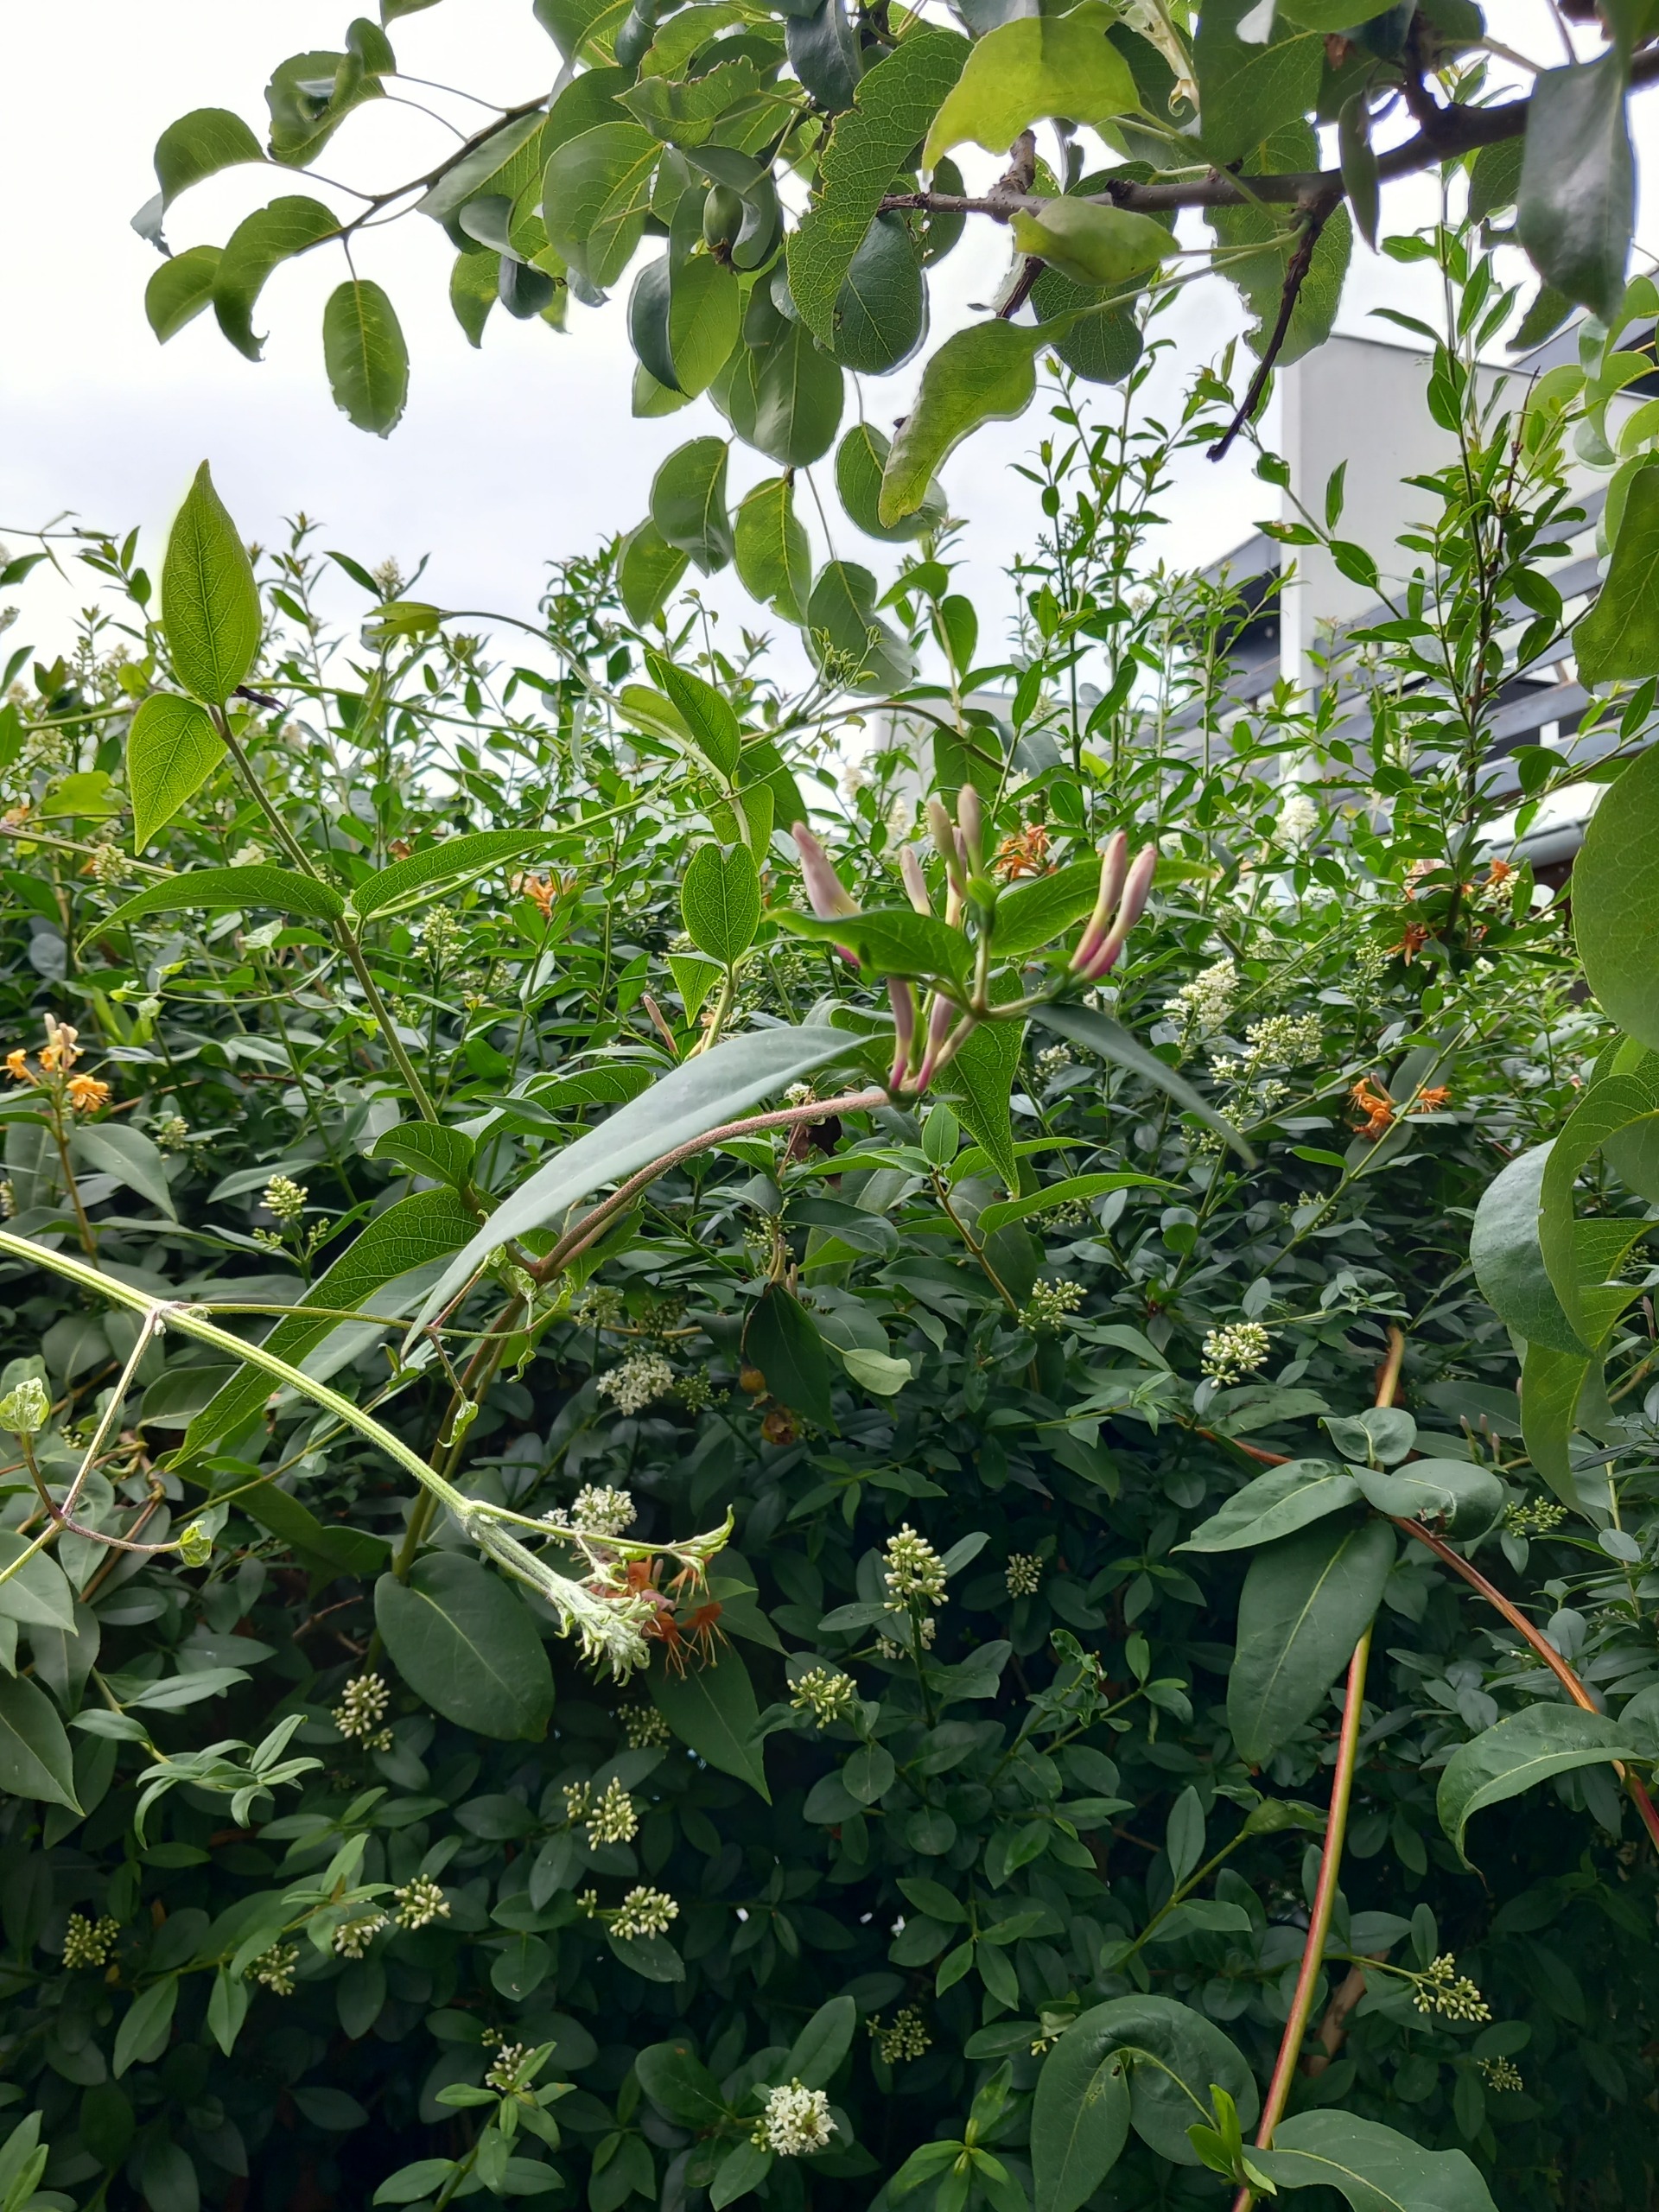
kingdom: Plantae
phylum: Tracheophyta
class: Magnoliopsida
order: Dipsacales
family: Caprifoliaceae
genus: Lonicera
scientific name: Lonicera acuminata
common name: Henrys gedeblad
